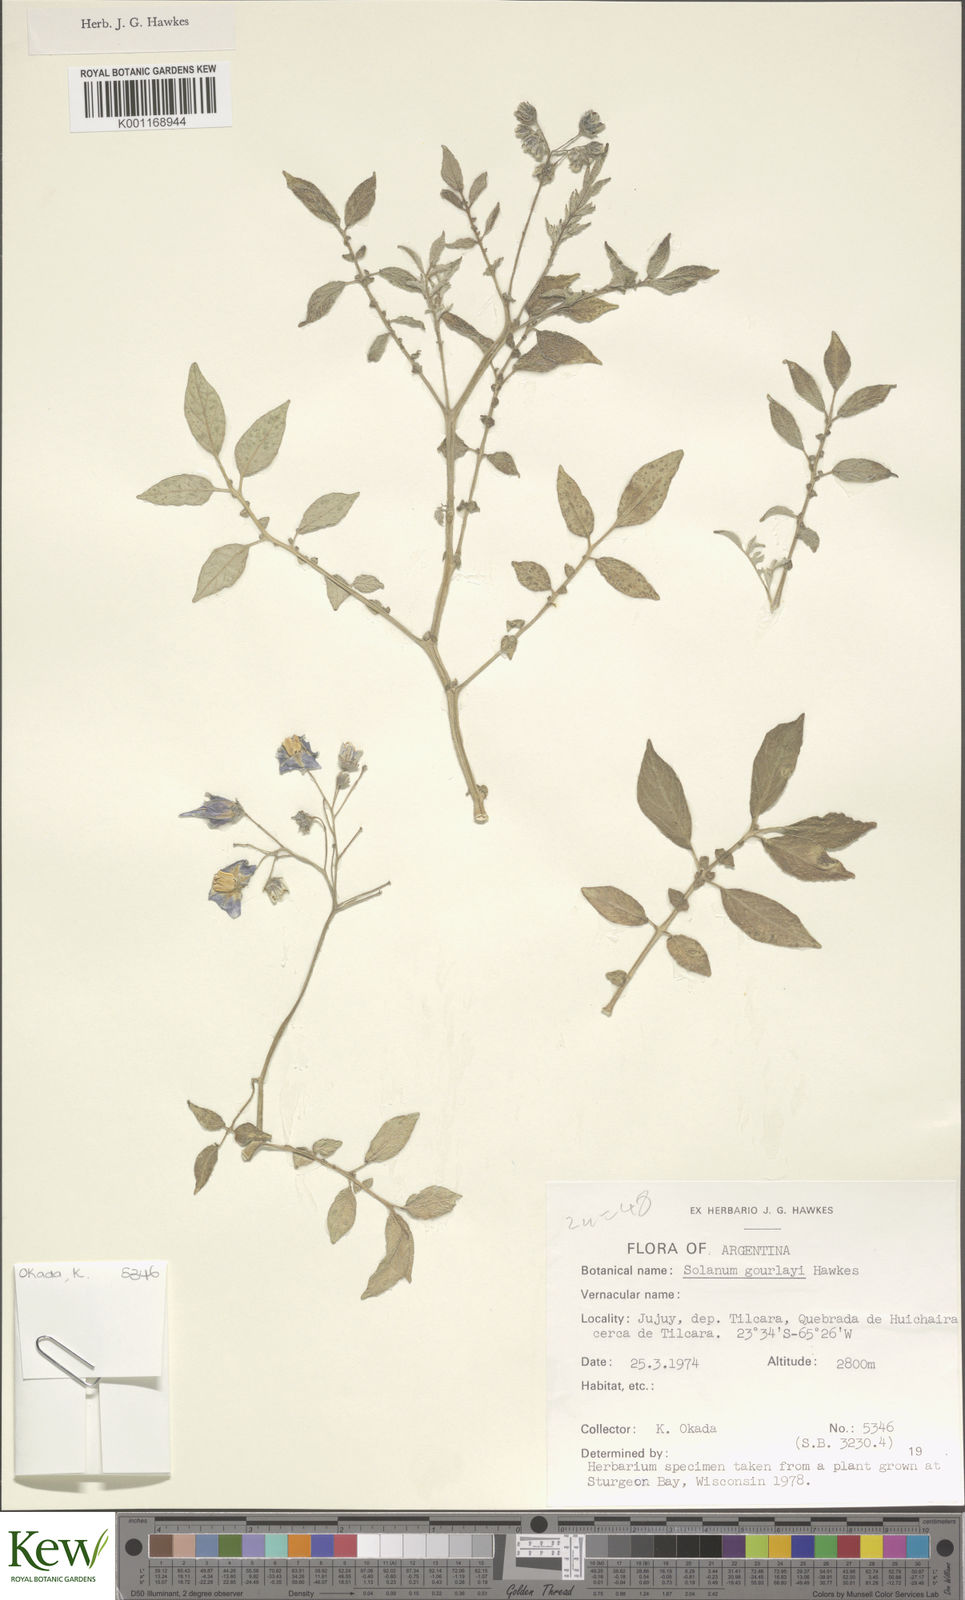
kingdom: Plantae
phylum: Tracheophyta
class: Magnoliopsida
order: Solanales
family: Solanaceae
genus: Solanum
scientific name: Solanum brevicaule
